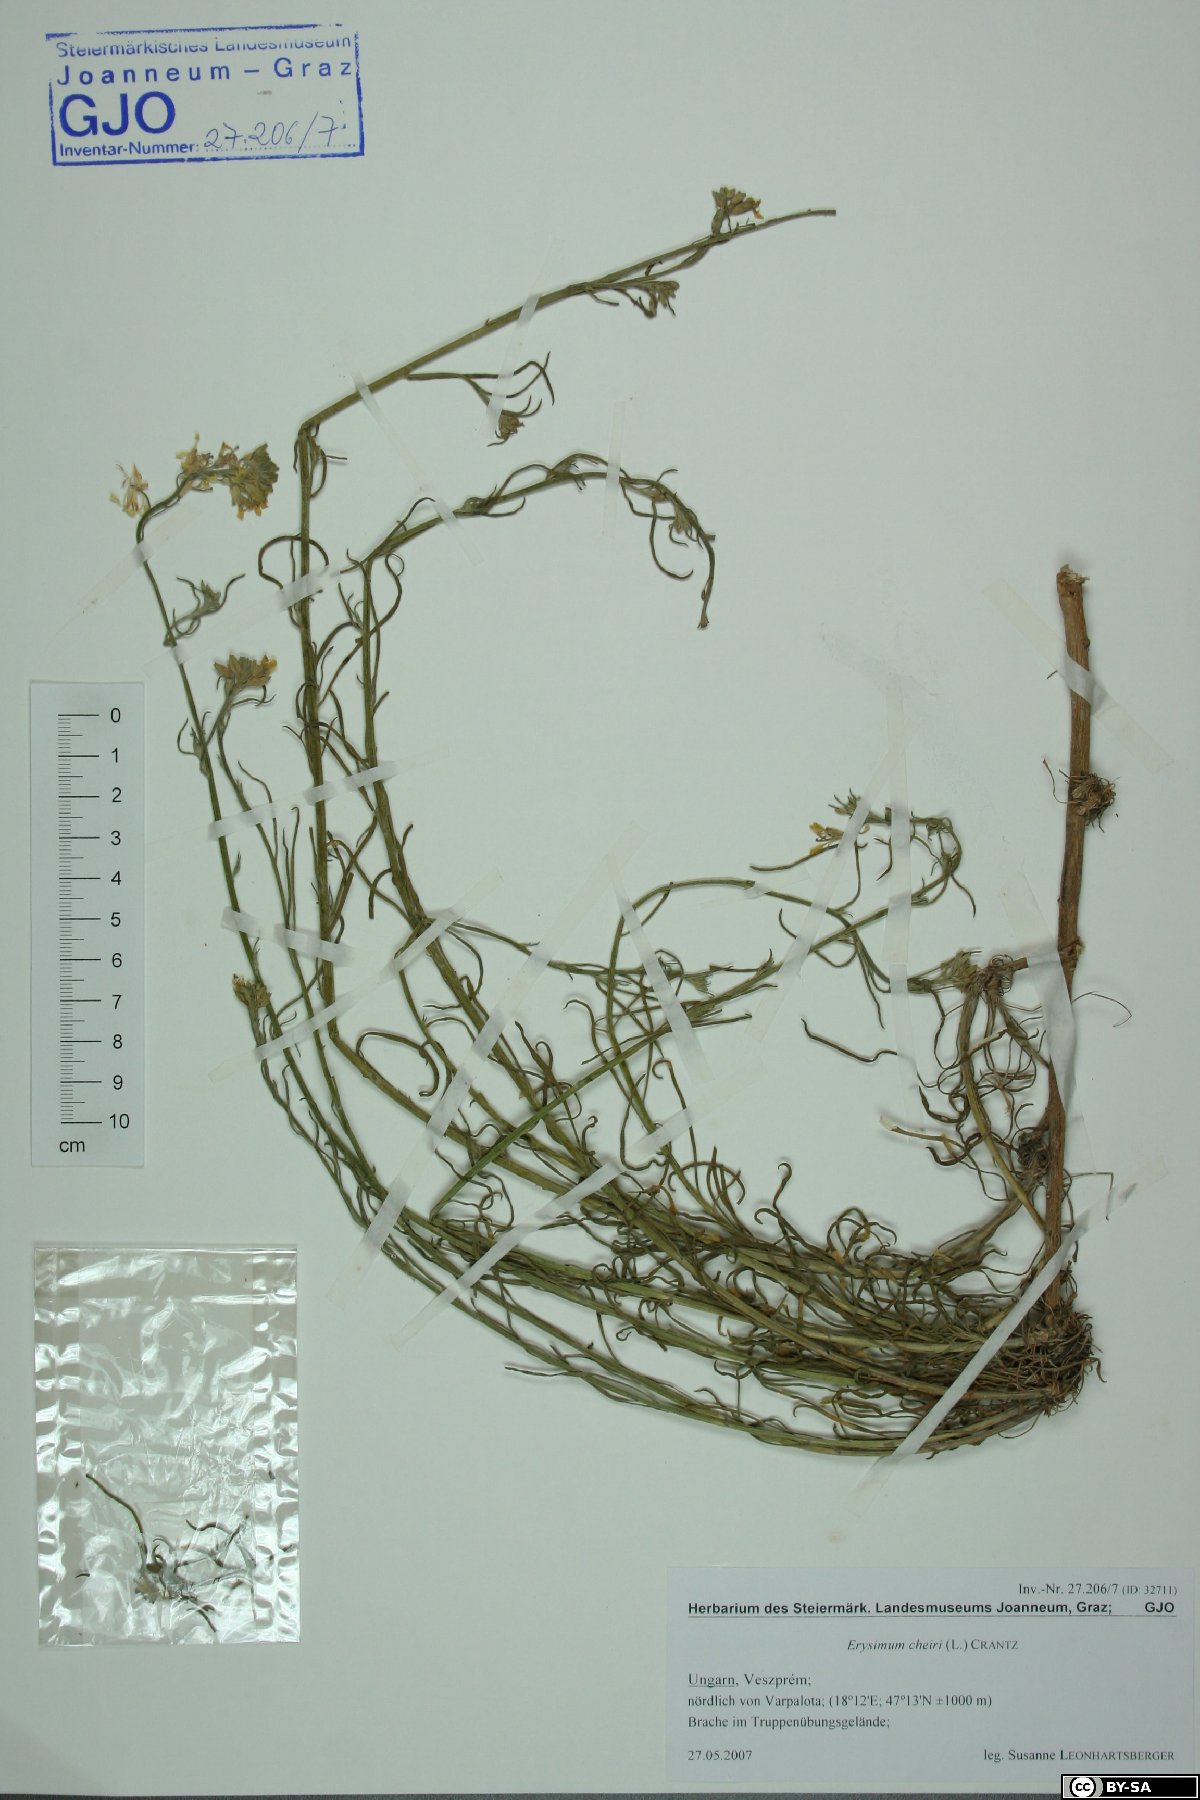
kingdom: Plantae
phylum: Tracheophyta
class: Magnoliopsida
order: Brassicales
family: Brassicaceae
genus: Erysimum
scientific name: Erysimum cheiri
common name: Wallflower
